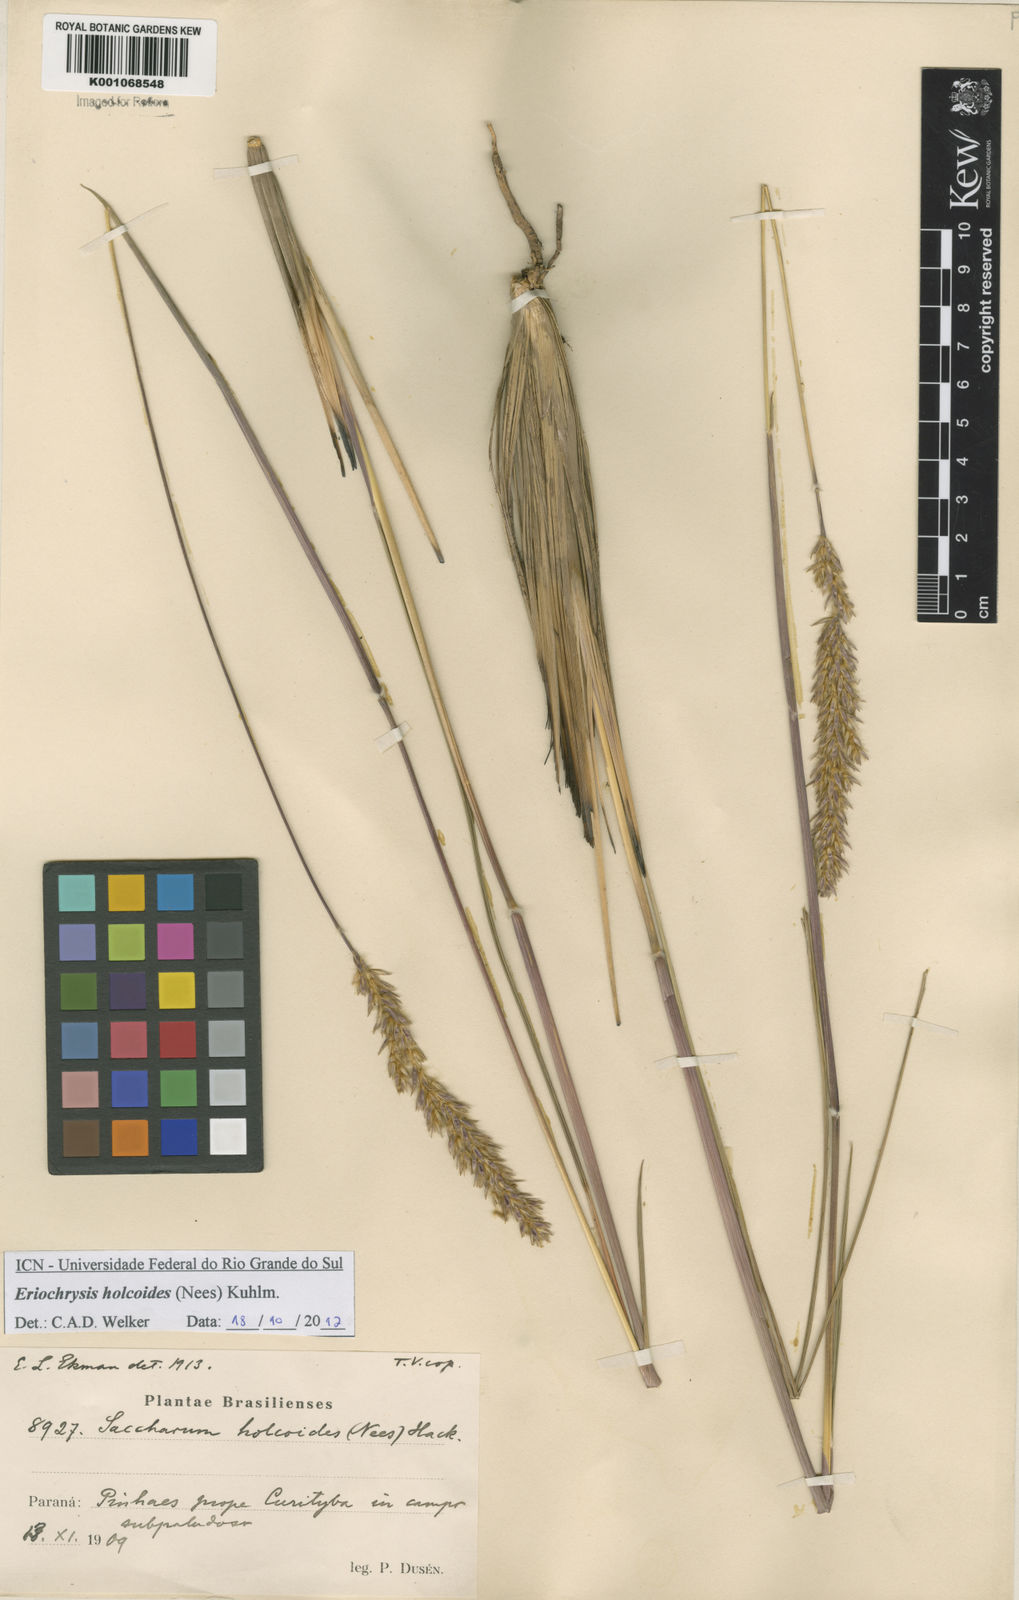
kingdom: Plantae
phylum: Tracheophyta
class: Liliopsida
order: Poales
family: Poaceae
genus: Eriochrysis
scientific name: Eriochrysis holcoides
